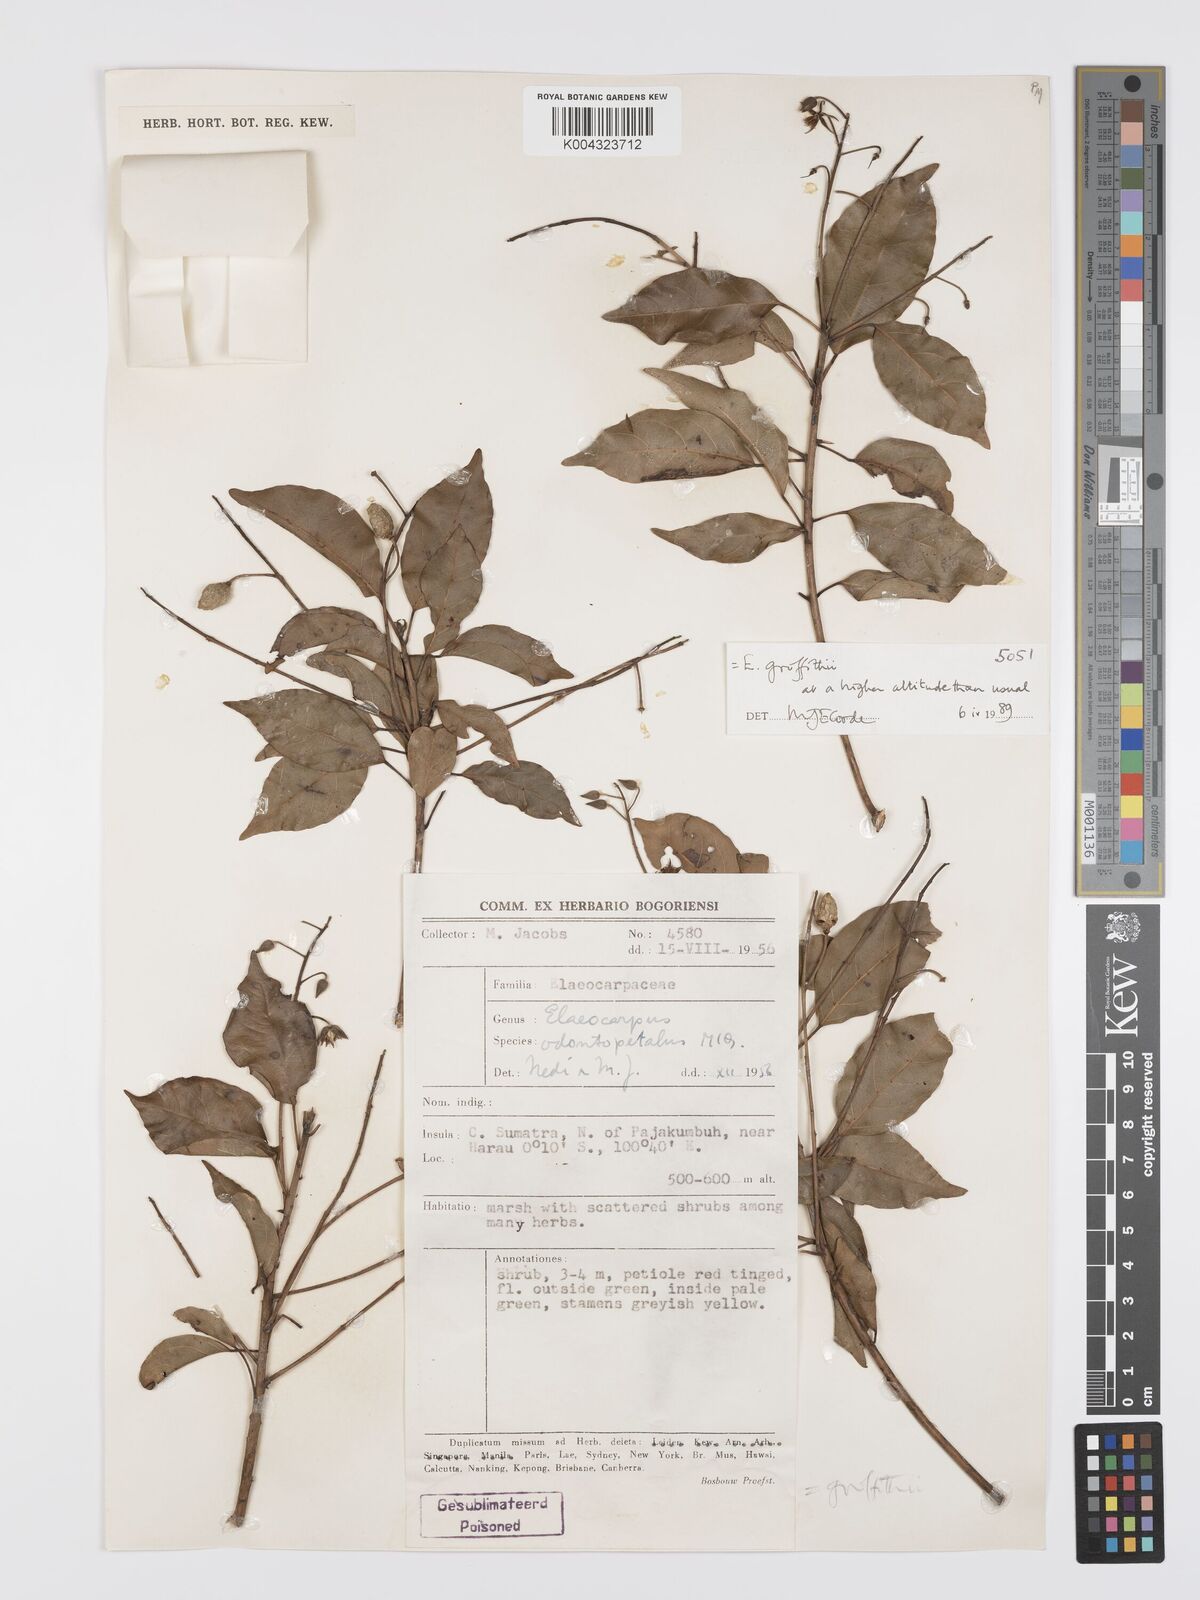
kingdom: Plantae
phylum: Tracheophyta
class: Magnoliopsida
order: Oxalidales
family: Elaeocarpaceae
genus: Elaeocarpus
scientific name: Elaeocarpus griffithii
